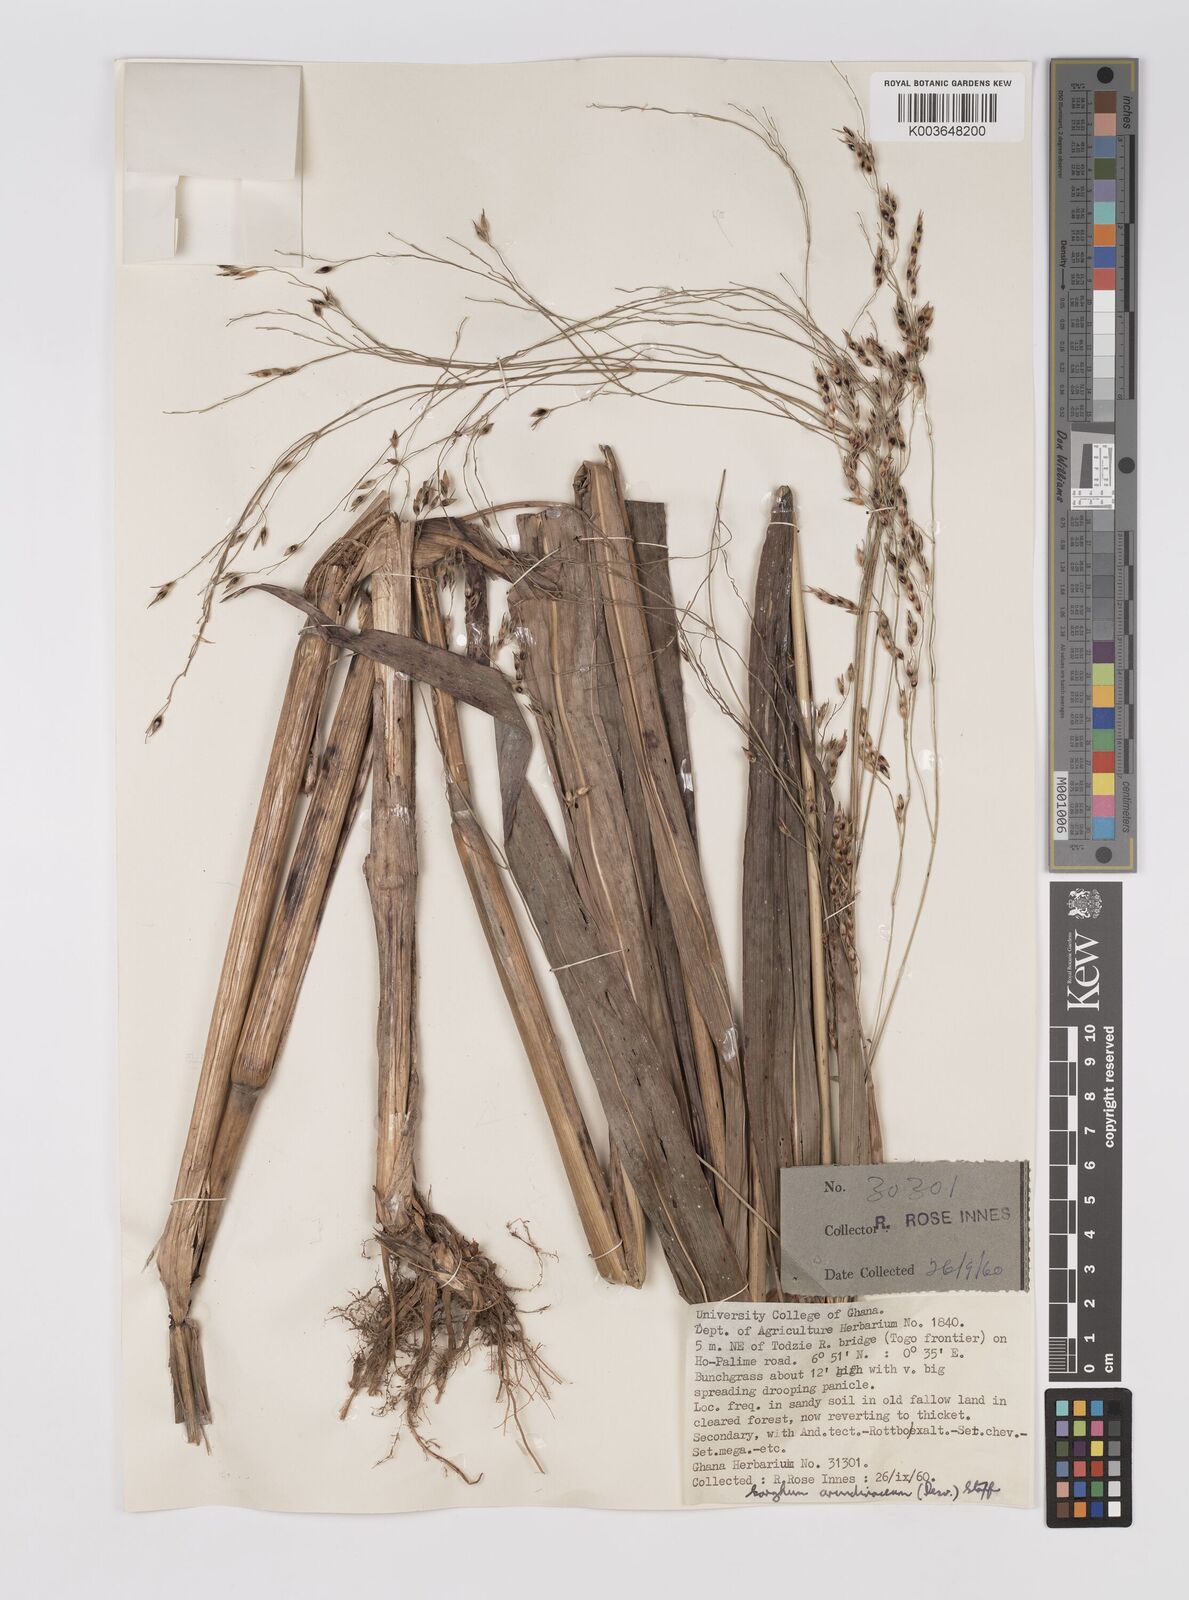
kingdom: Plantae
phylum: Tracheophyta
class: Liliopsida
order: Poales
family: Poaceae
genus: Sorghum
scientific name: Sorghum arundinaceum
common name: Sorghum
